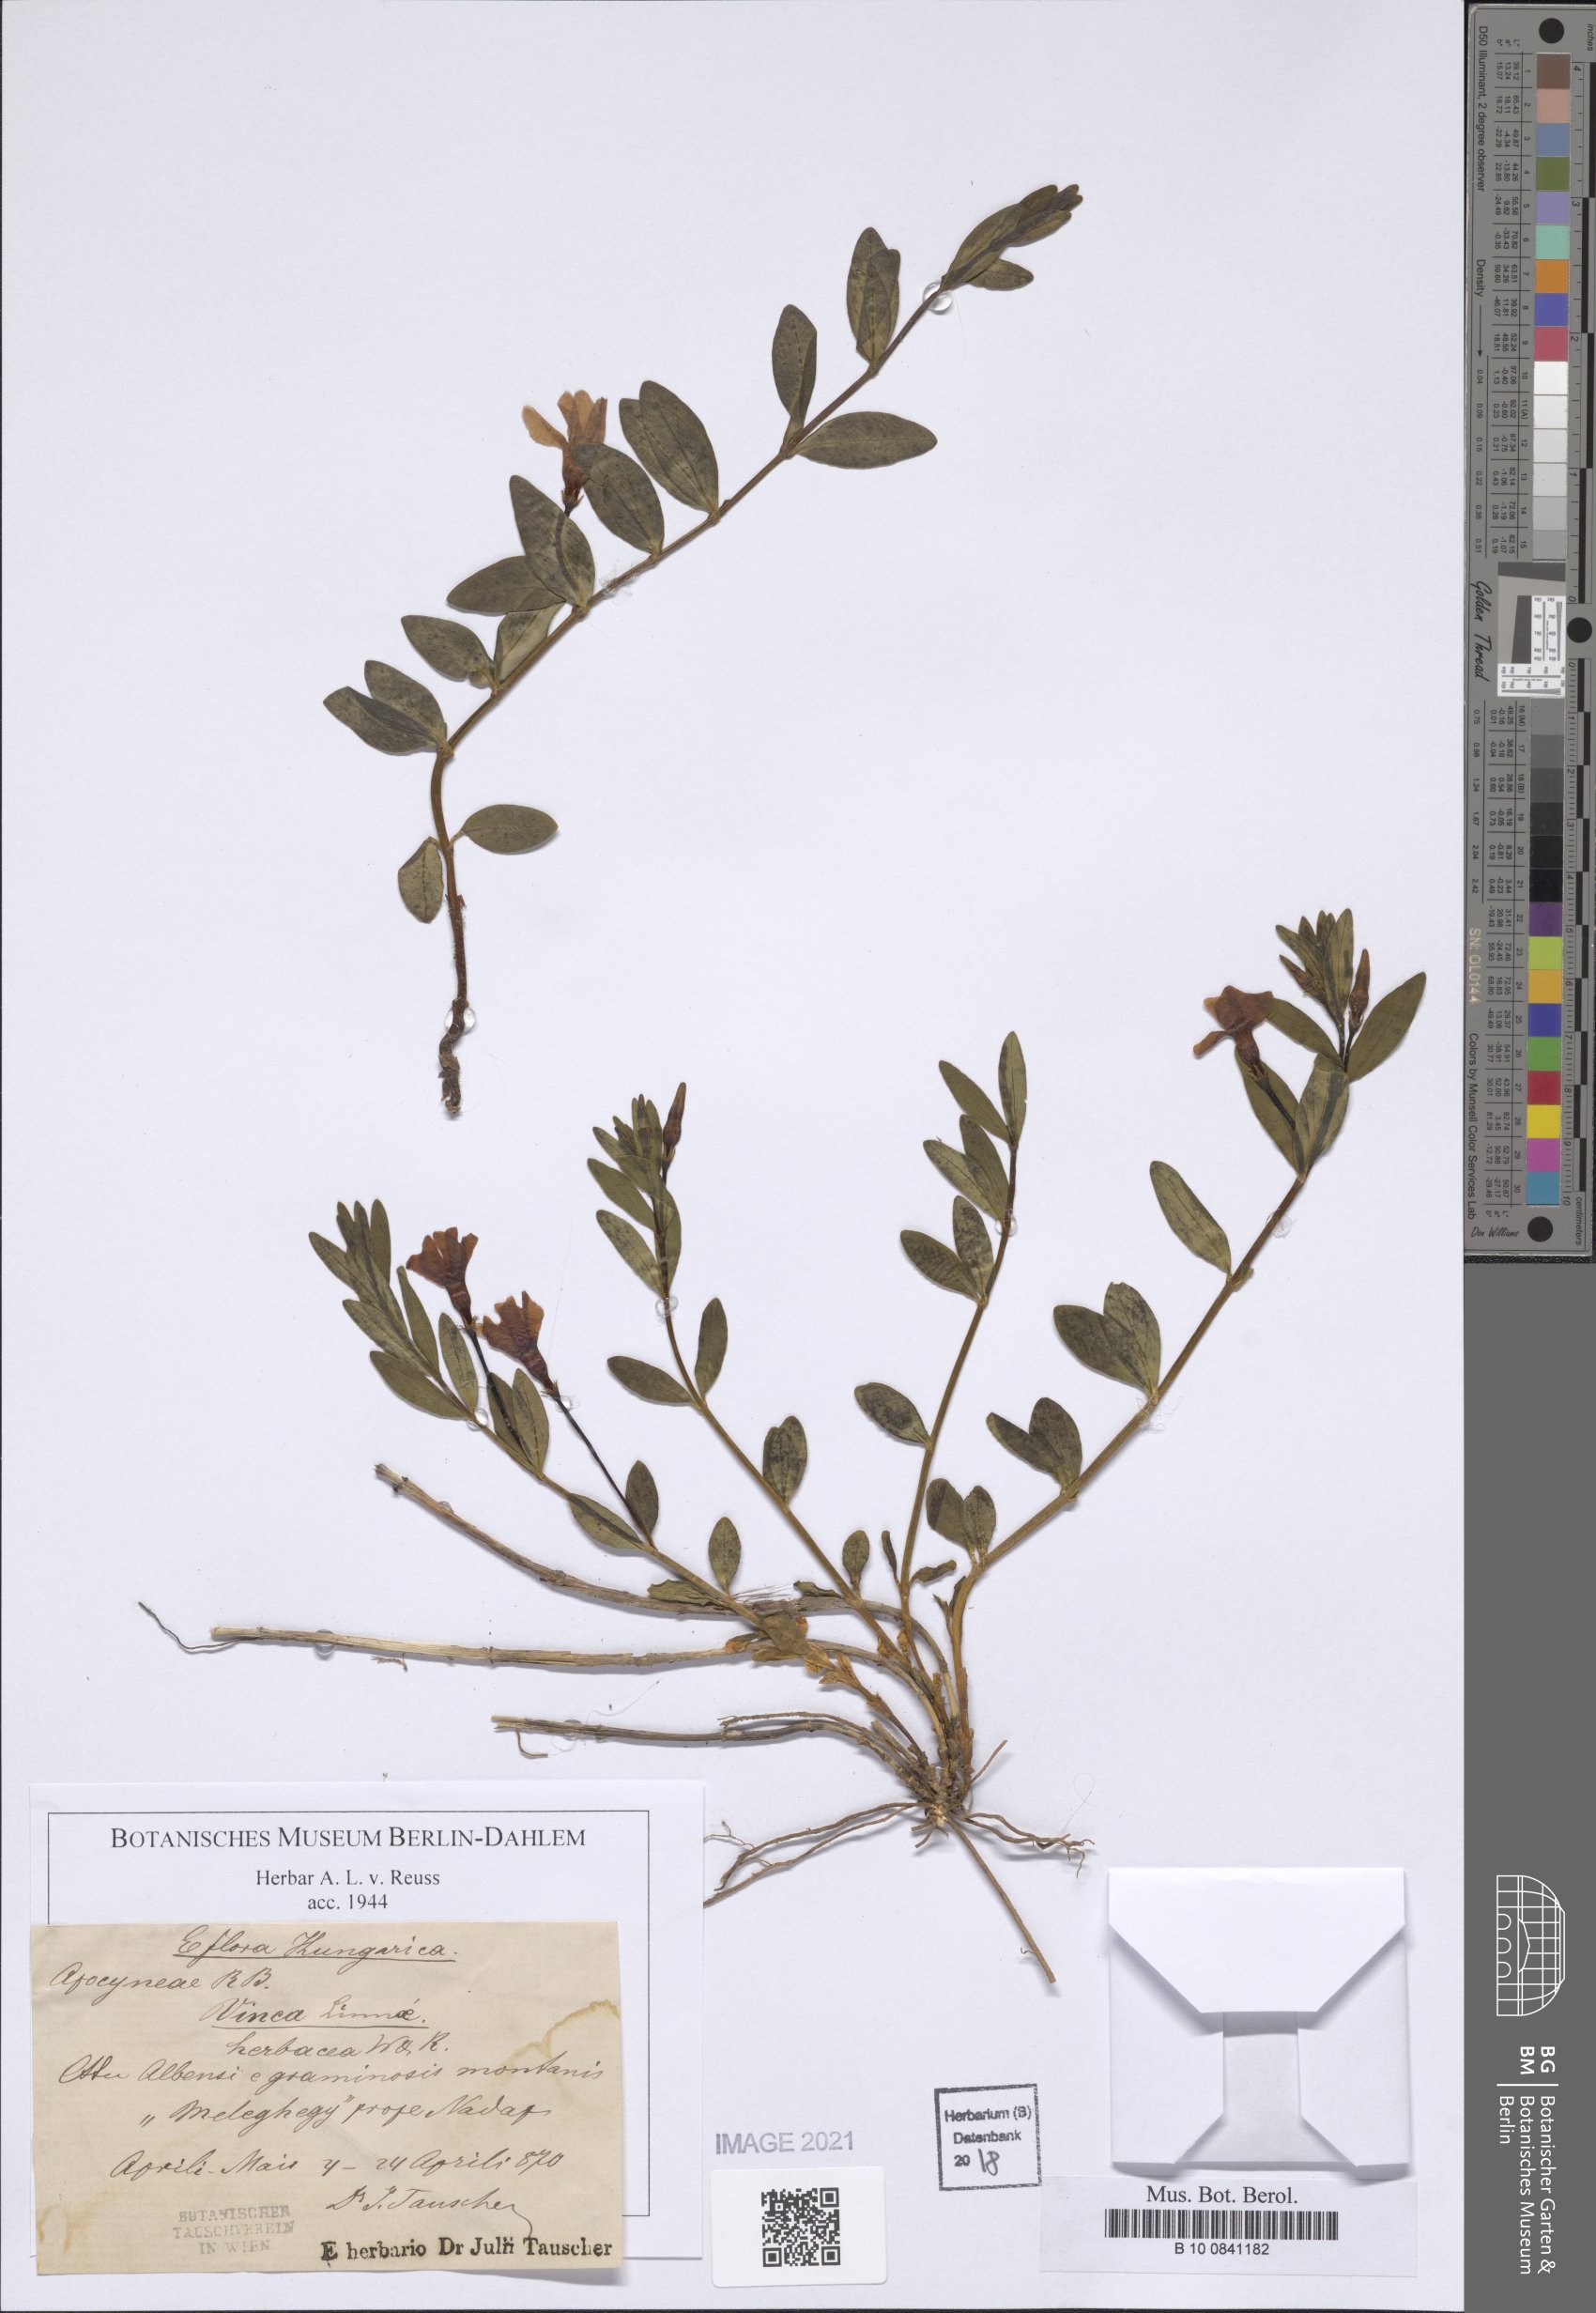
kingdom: Plantae
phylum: Tracheophyta
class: Magnoliopsida
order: Gentianales
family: Apocynaceae
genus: Vinca
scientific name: Vinca herbacea
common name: Herbaceous periwinkle
